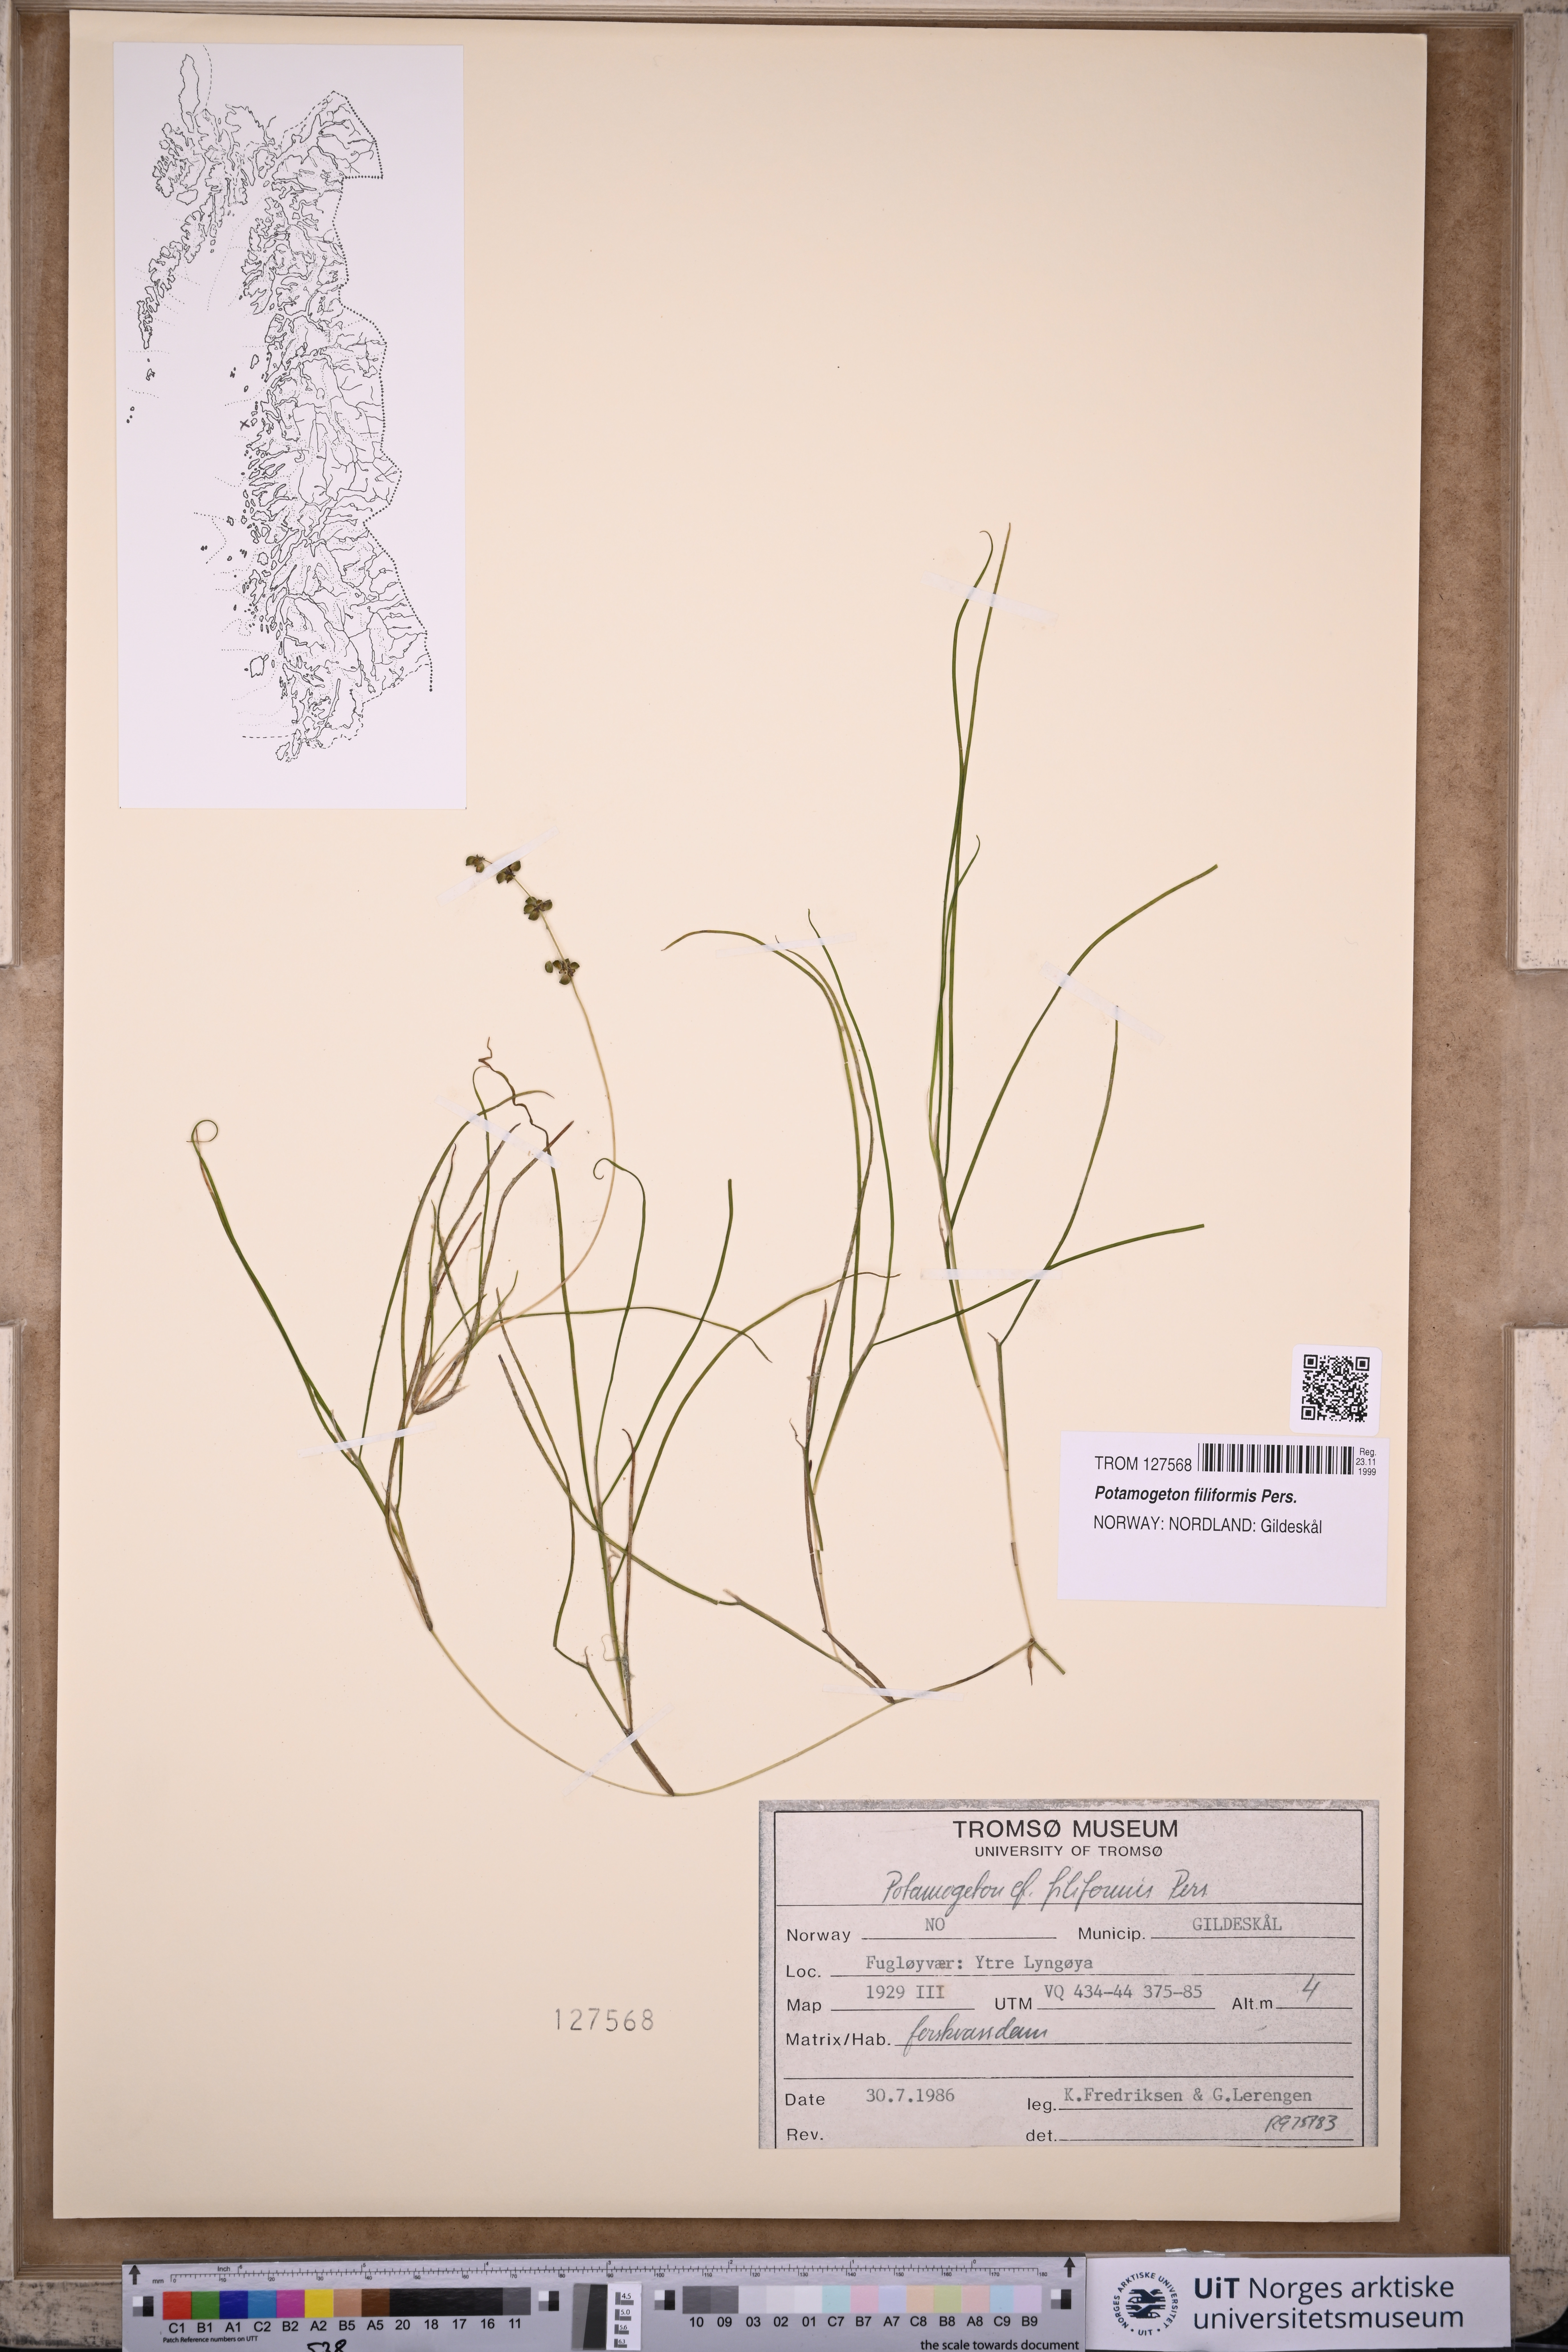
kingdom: Plantae
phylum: Tracheophyta
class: Liliopsida
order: Alismatales
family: Potamogetonaceae
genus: Stuckenia
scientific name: Stuckenia filiformis
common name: Alpine thread-leaved pondweed
